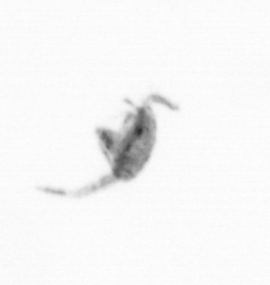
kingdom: Animalia
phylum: Arthropoda
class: Copepoda
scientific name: Copepoda
